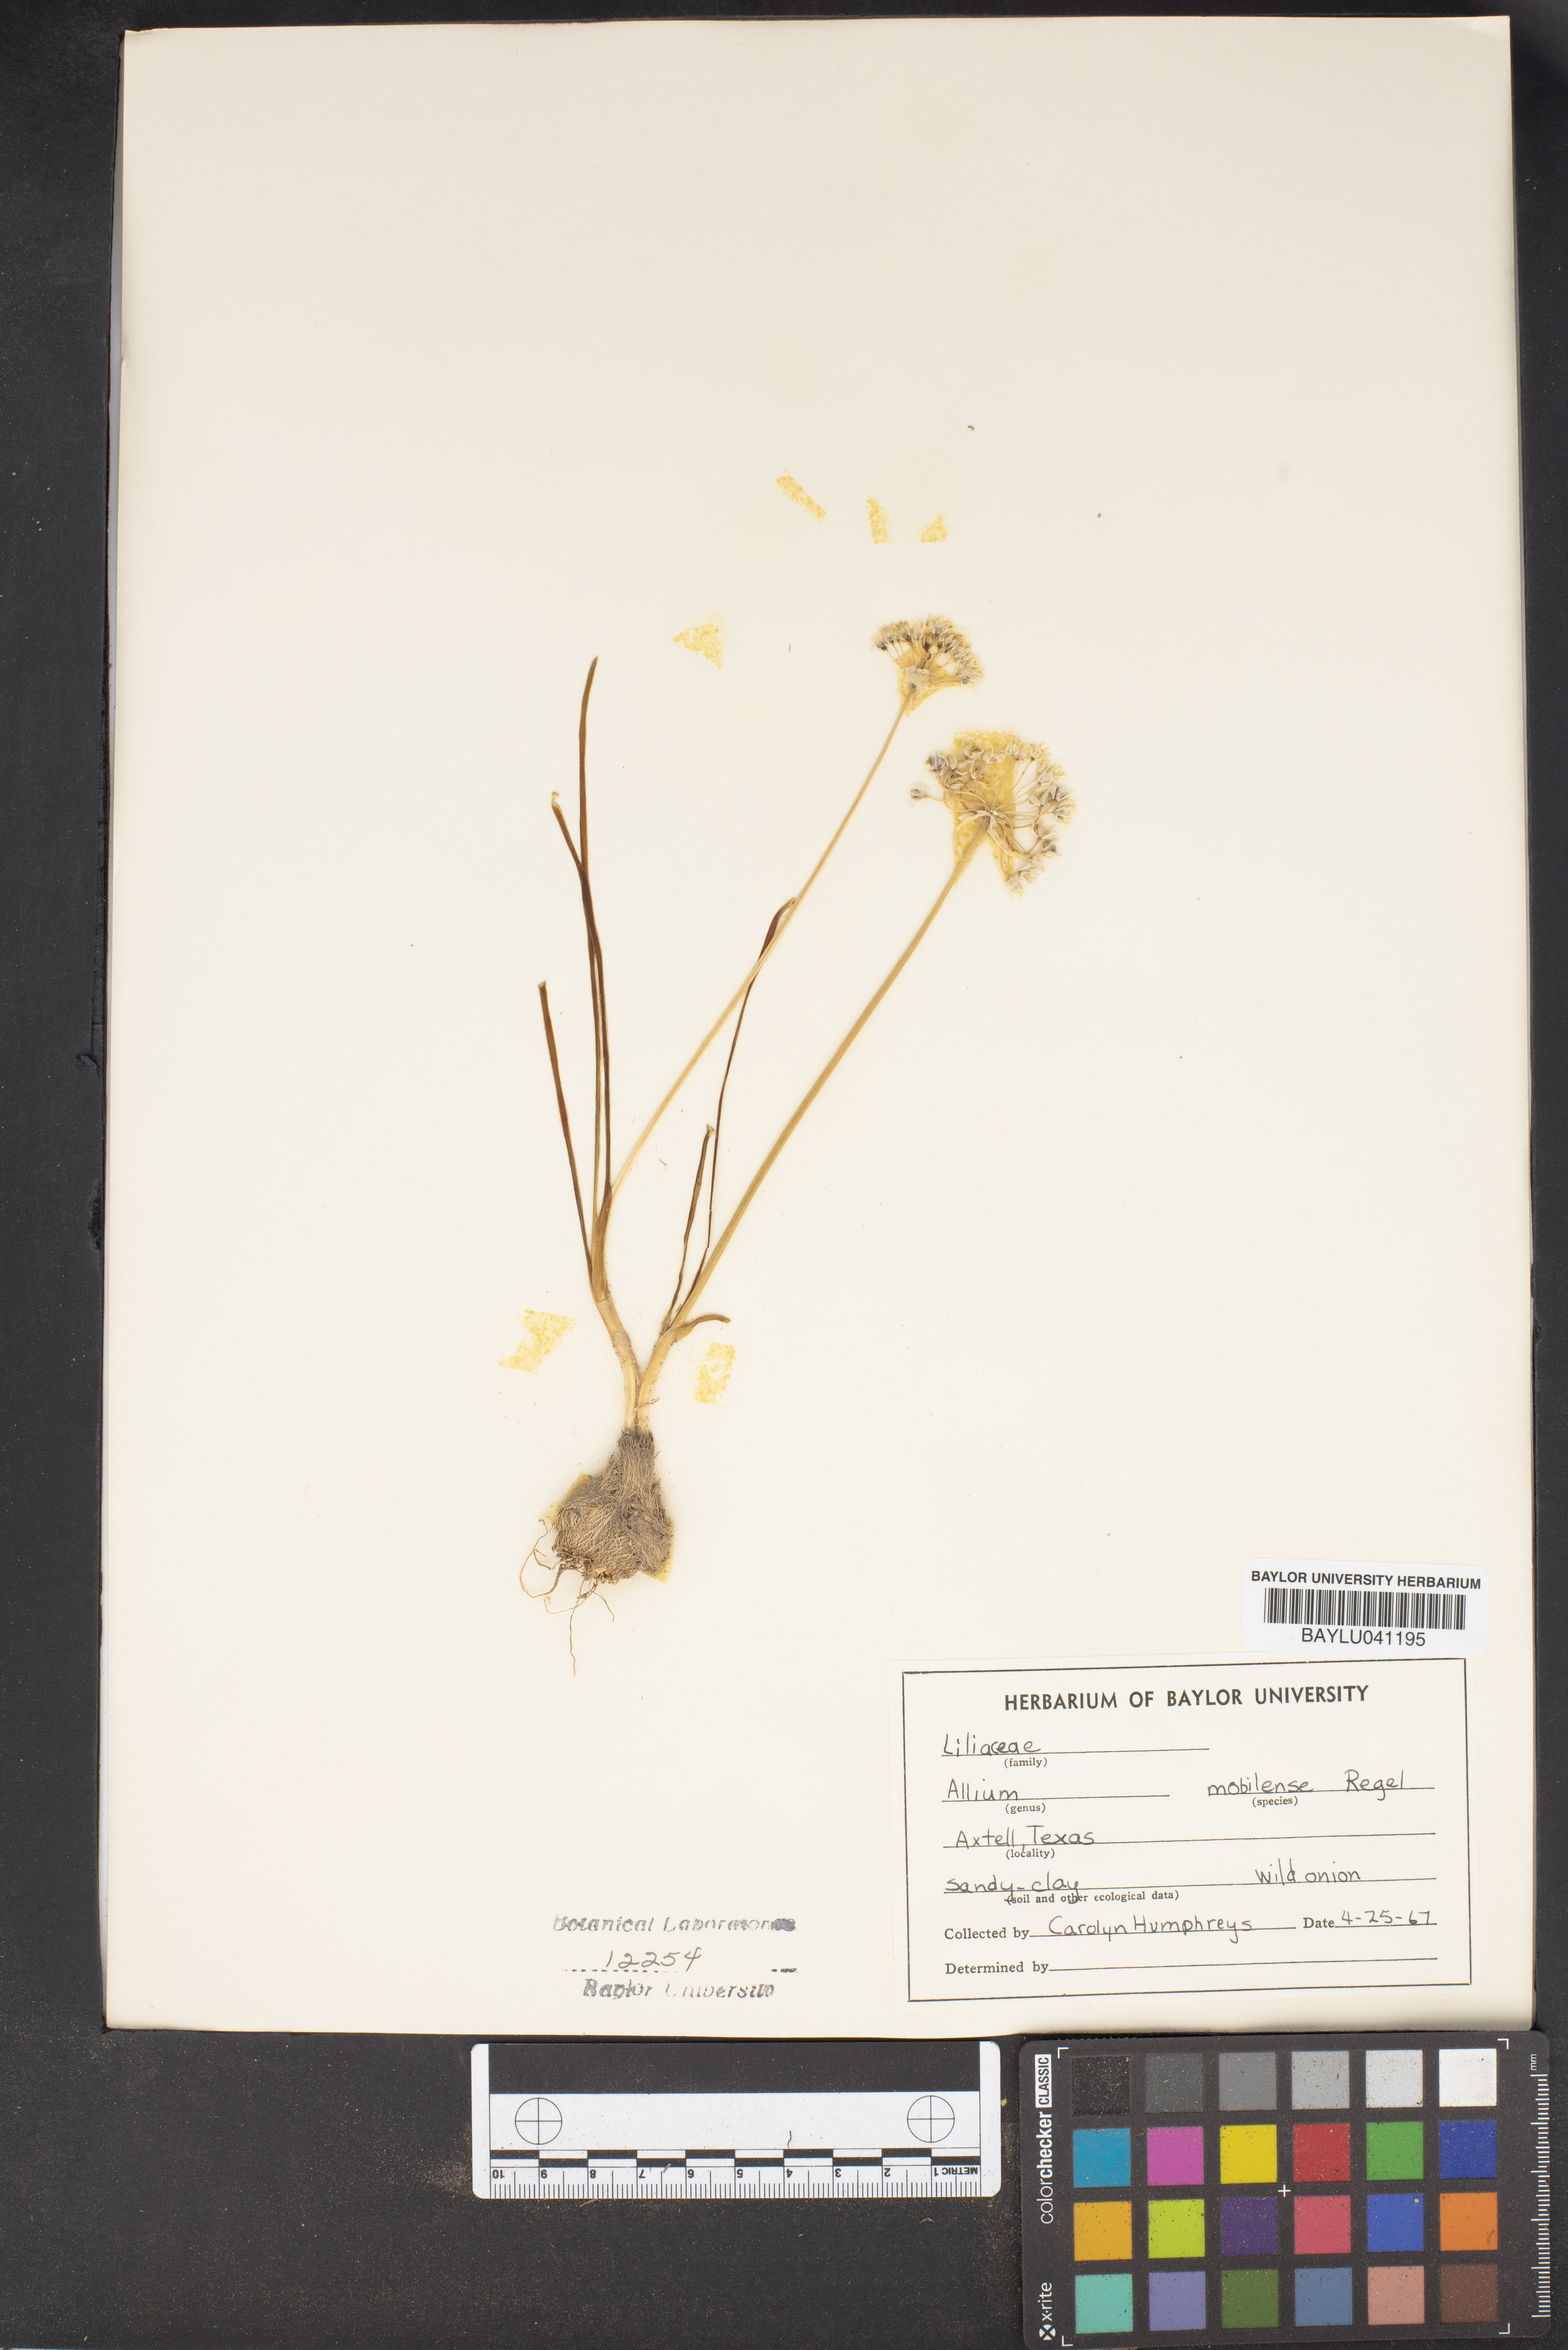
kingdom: Plantae
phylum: Tracheophyta
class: Liliopsida
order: Asparagales
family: Amaryllidaceae
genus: Allium
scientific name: Allium canadense
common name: Meadow garlic
